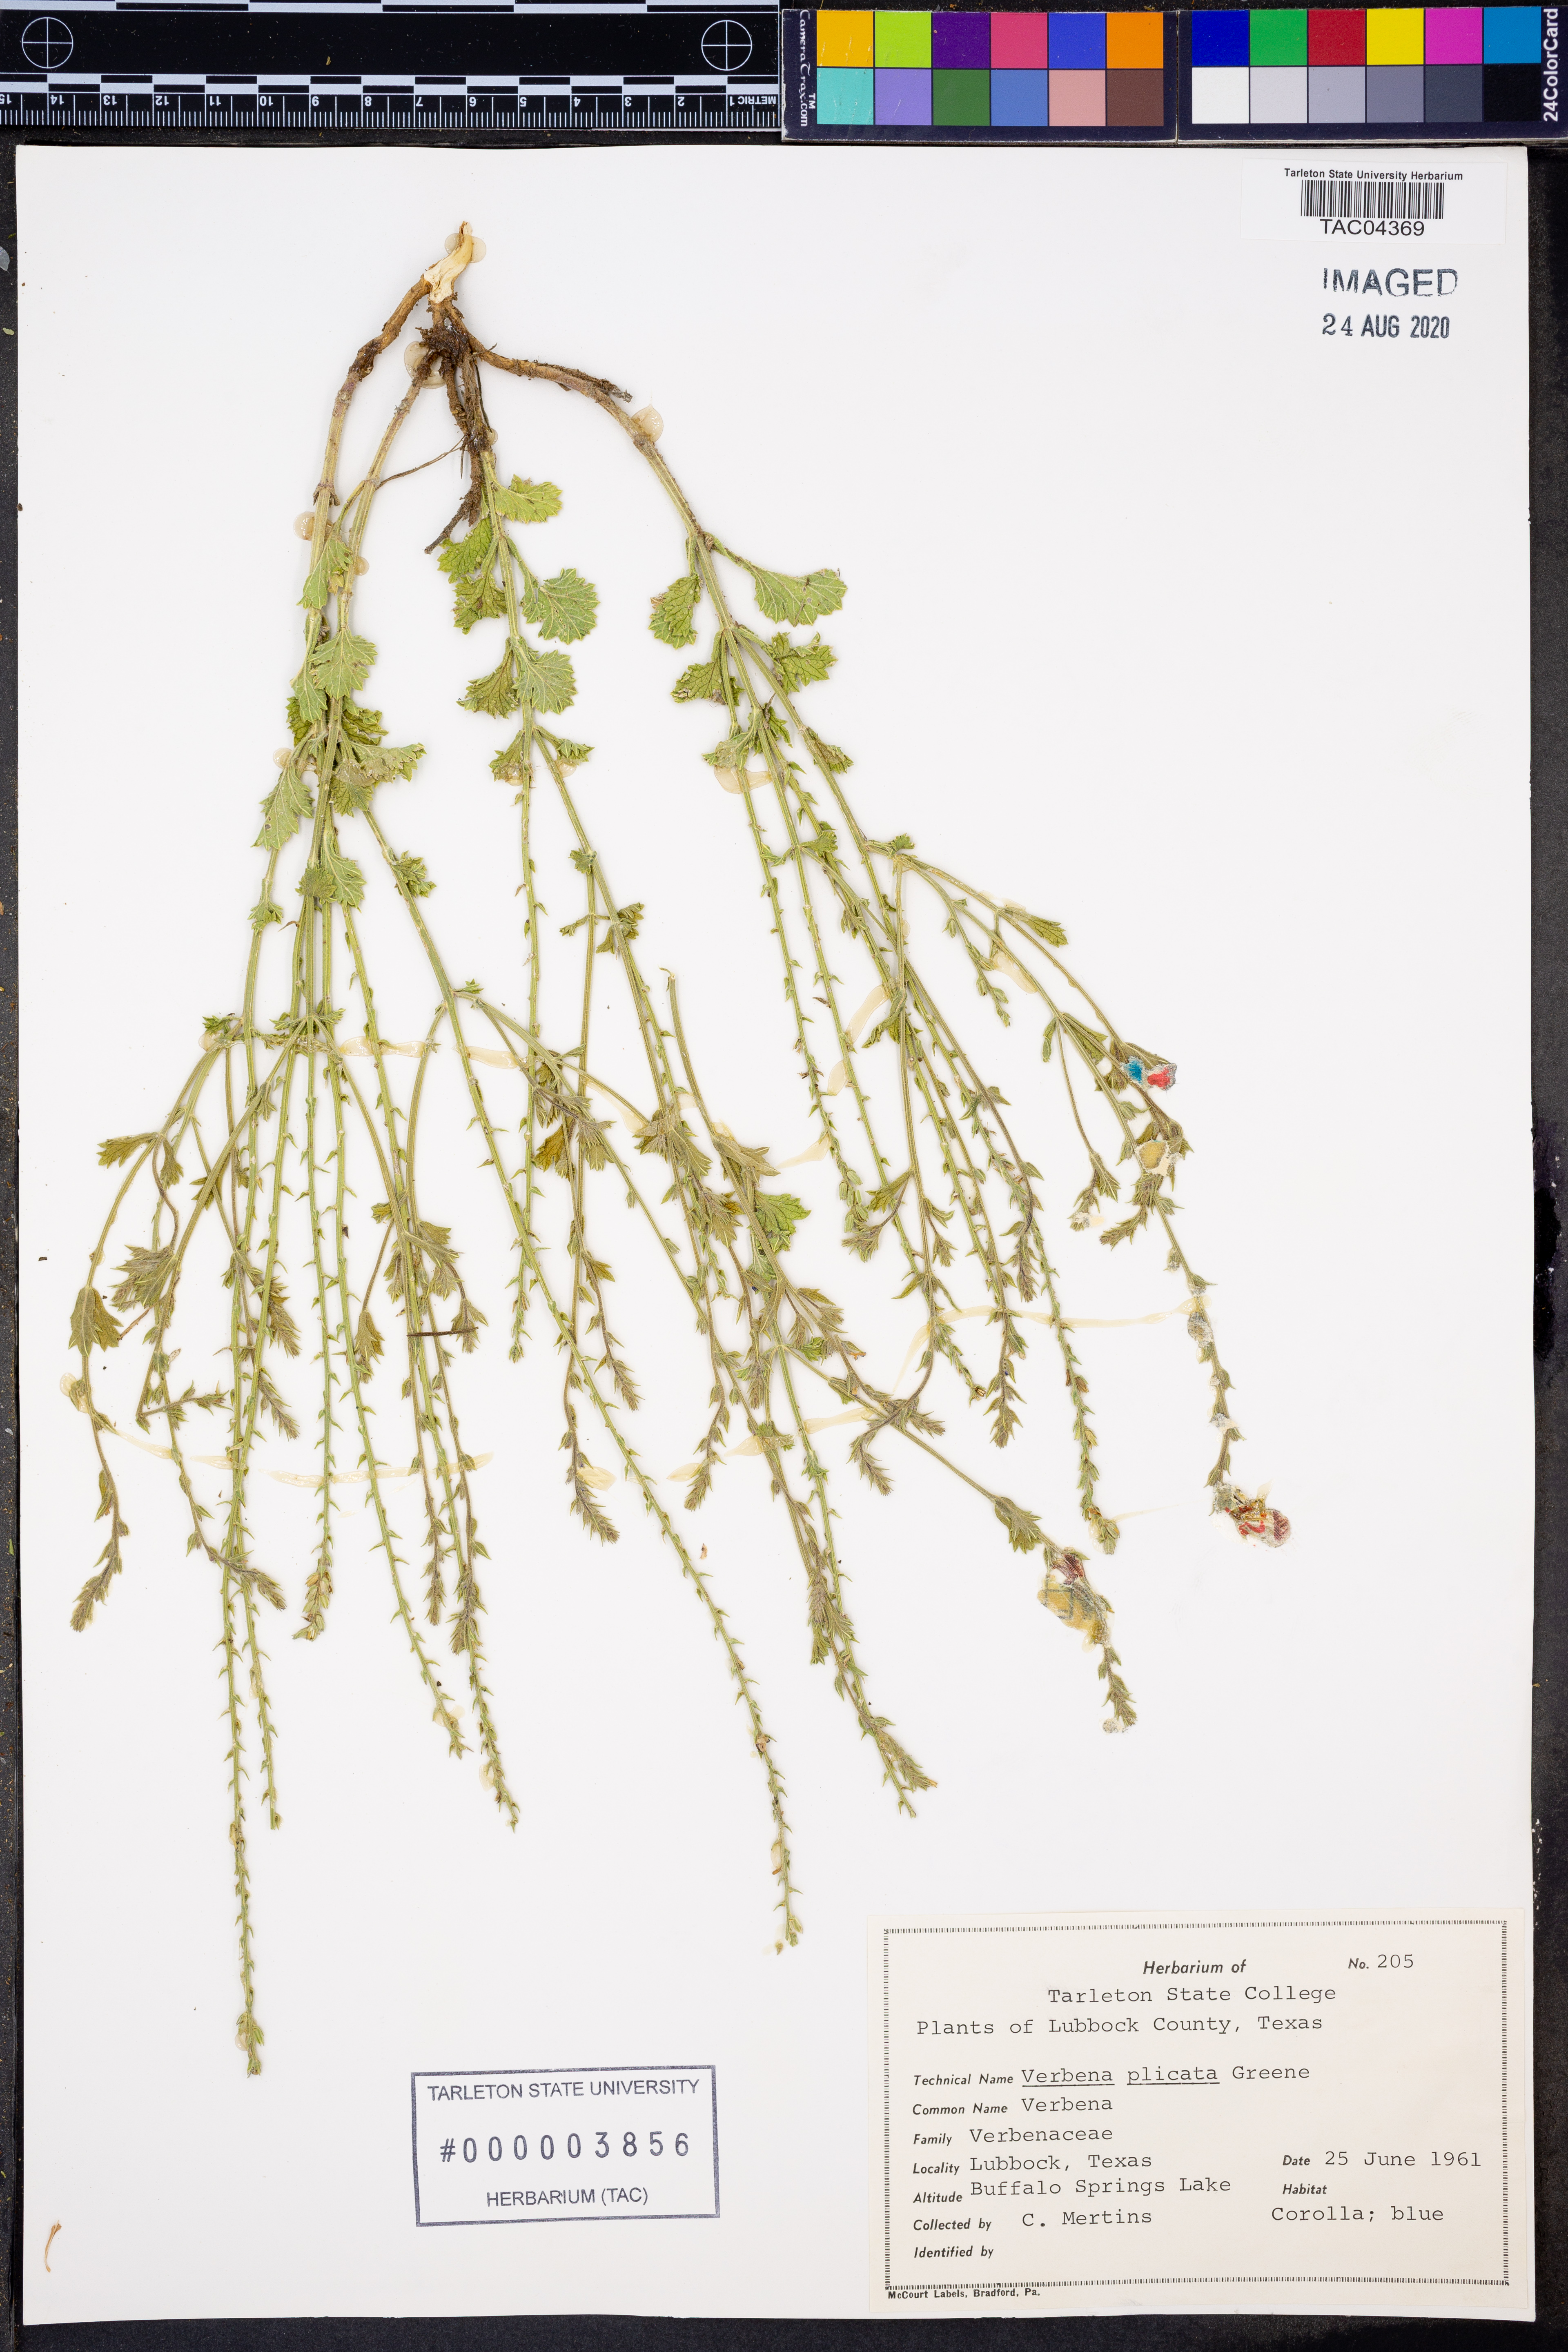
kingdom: Plantae
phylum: Tracheophyta
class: Magnoliopsida
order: Lamiales
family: Verbenaceae
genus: Verbena
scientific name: Verbena plicata
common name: Fan-leaf vervain
